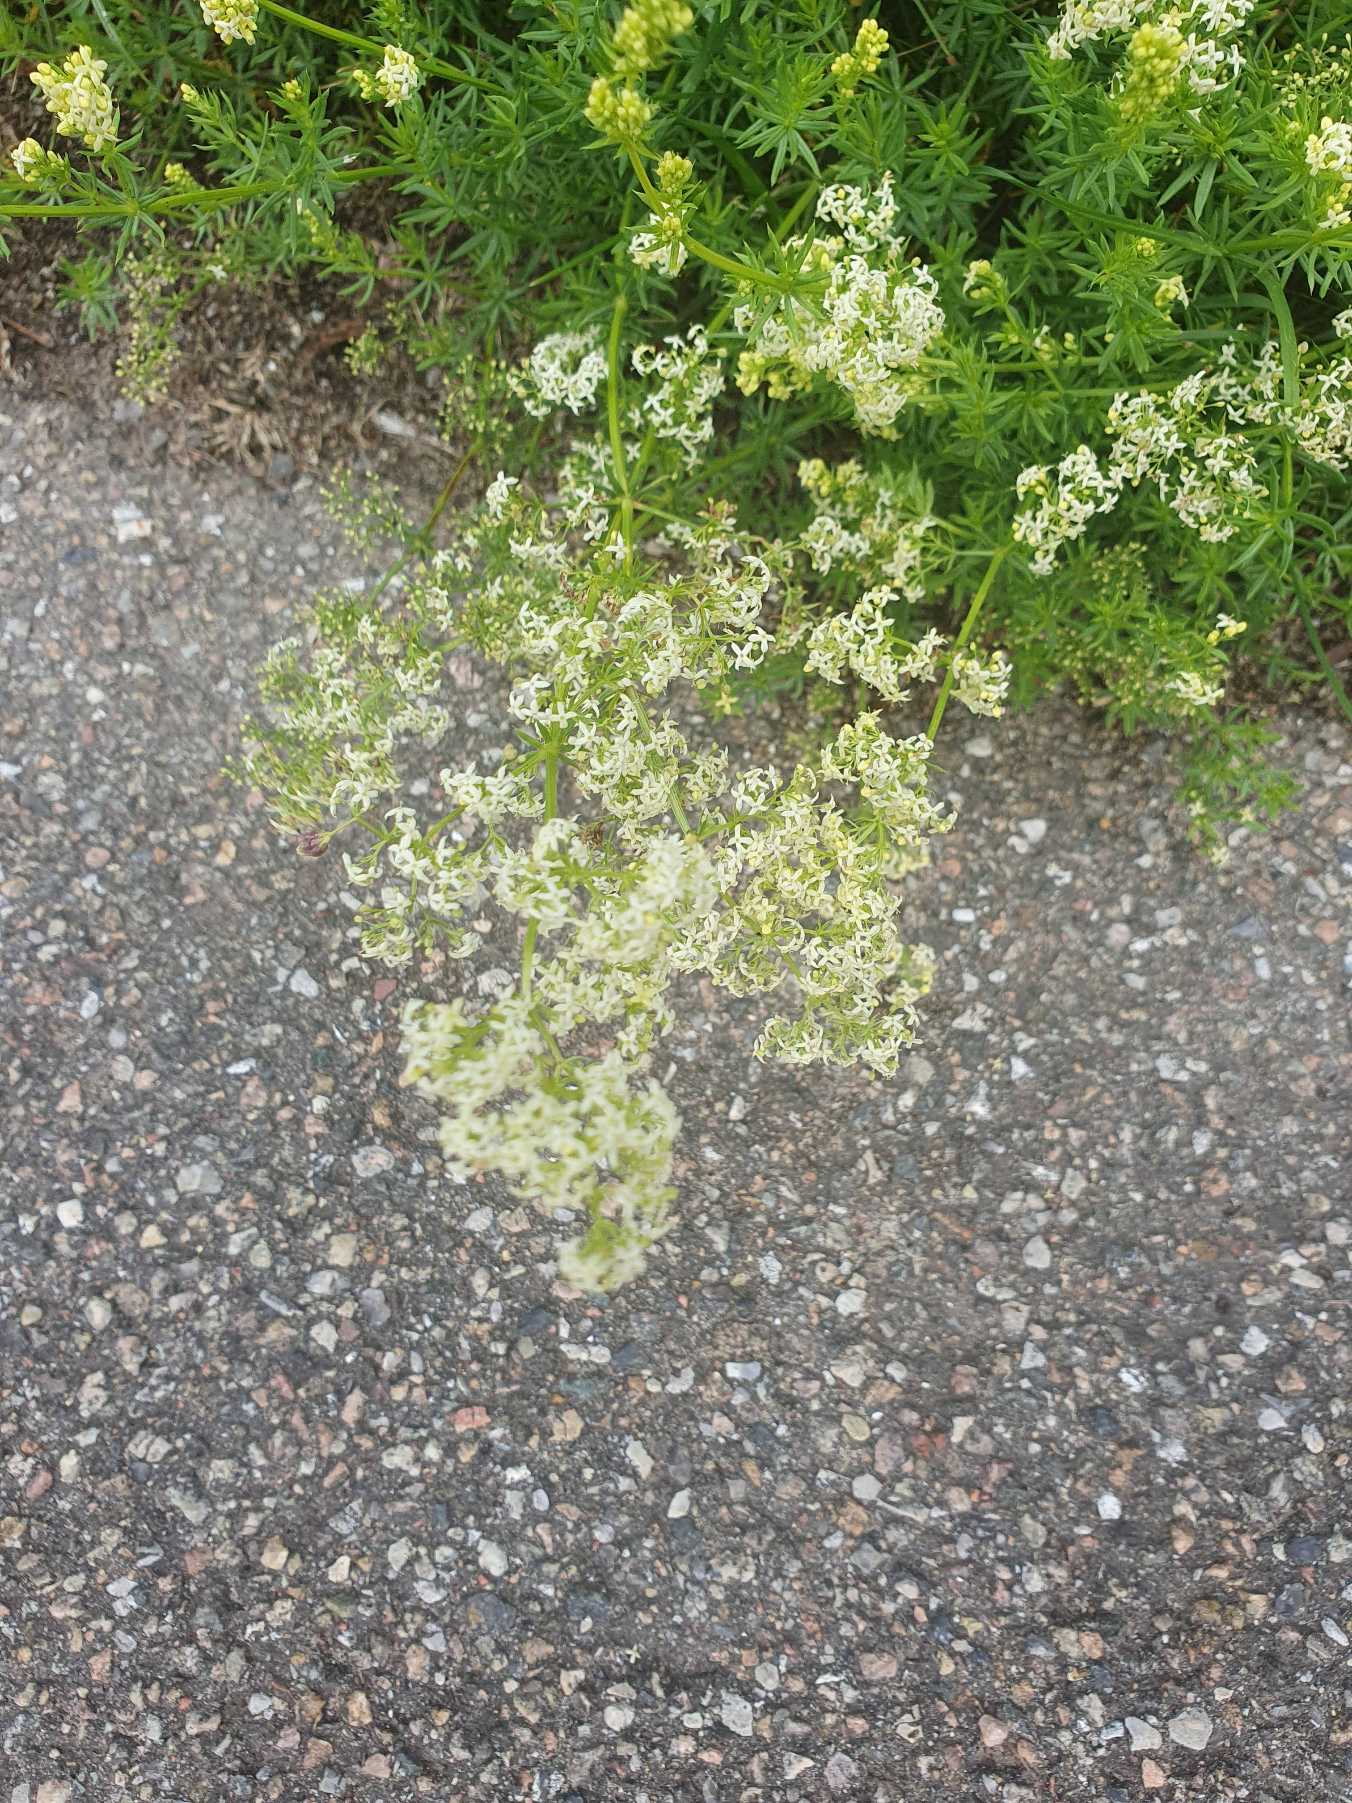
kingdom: Plantae
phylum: Tracheophyta
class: Magnoliopsida
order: Gentianales
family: Rubiaceae
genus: Galium
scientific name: Galium mollugo
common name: Hvid snerre
